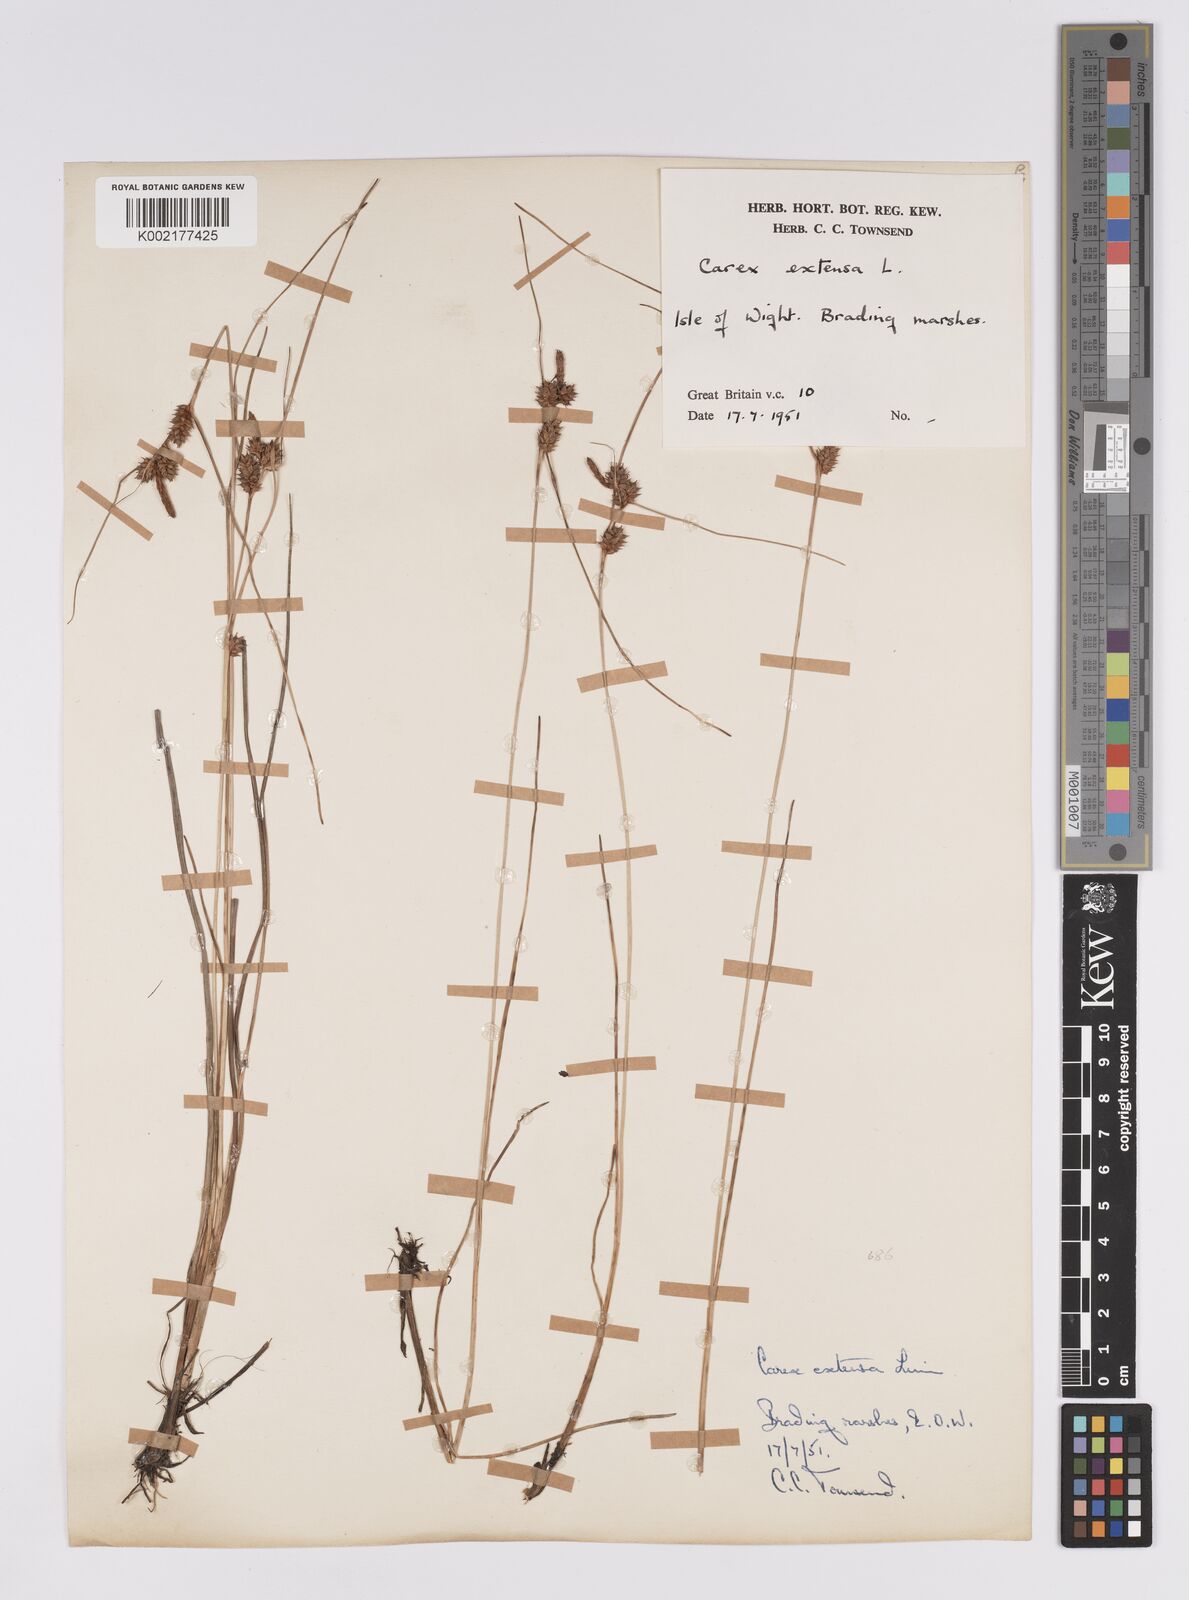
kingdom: Plantae
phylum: Tracheophyta
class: Liliopsida
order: Poales
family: Cyperaceae
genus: Carex
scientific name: Carex extensa
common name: Long-bracted sedge
